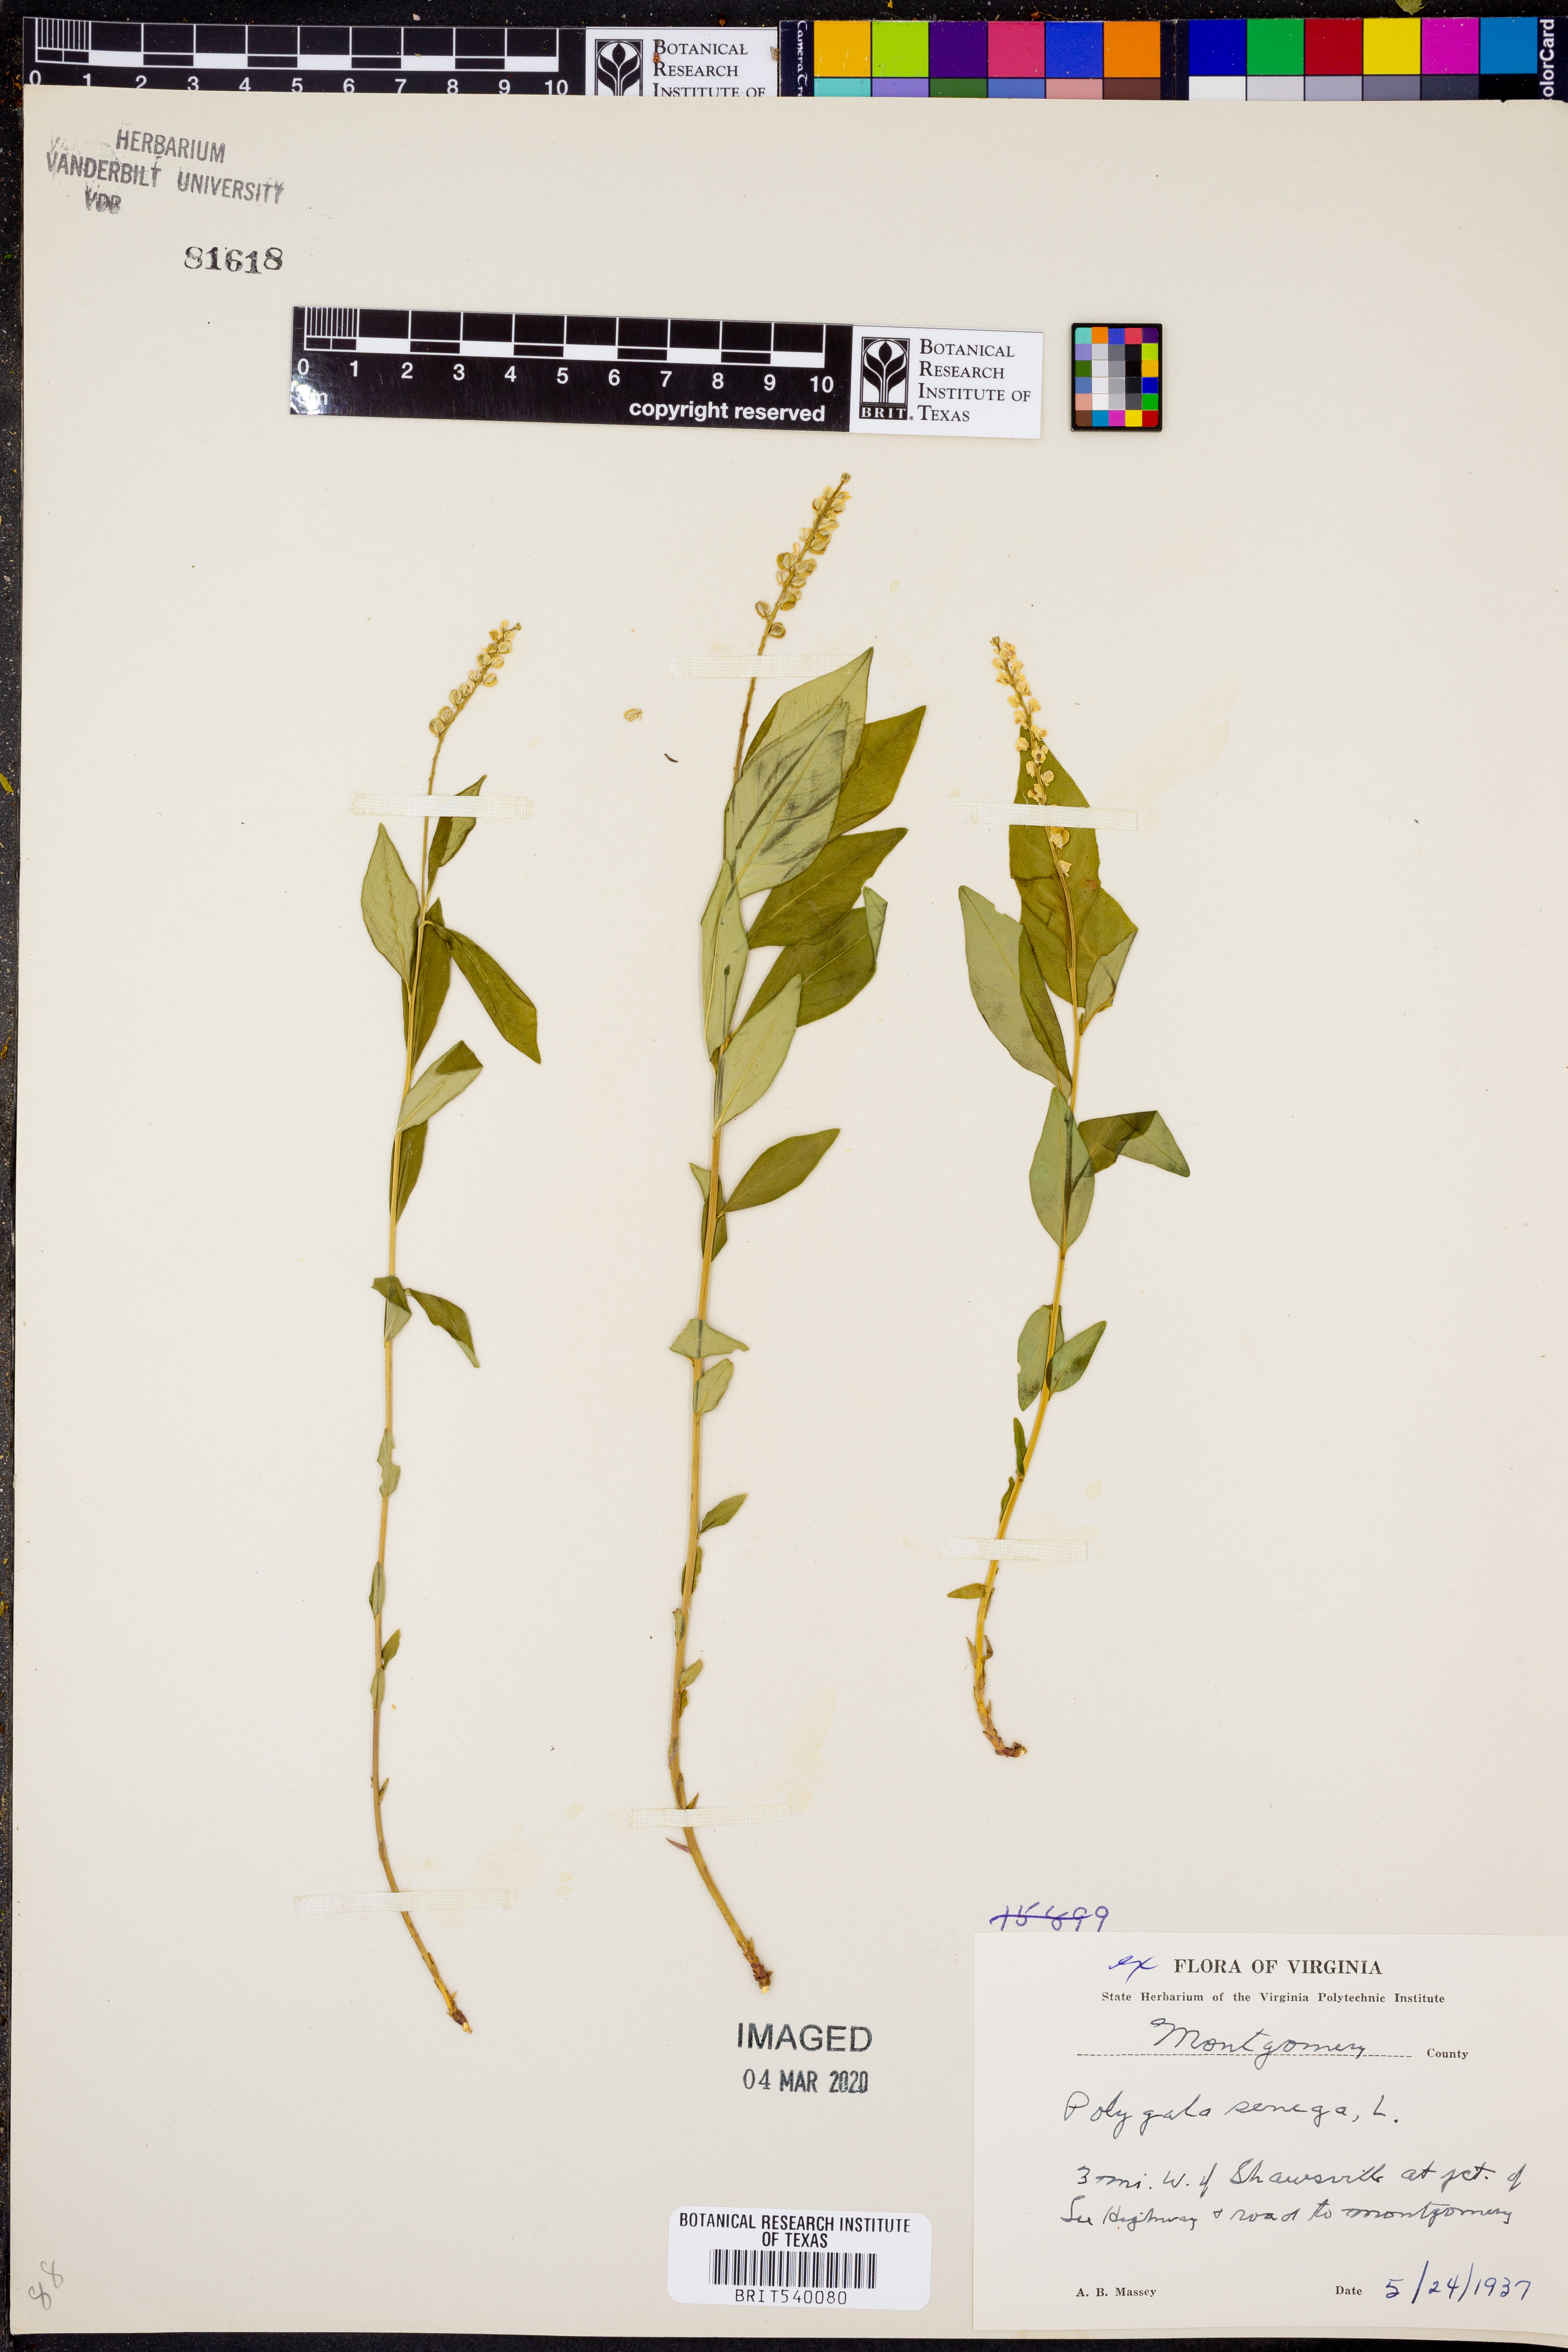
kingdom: Plantae
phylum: Tracheophyta
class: Magnoliopsida
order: Fabales
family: Polygalaceae
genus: Polygala
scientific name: Polygala senega
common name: Seneca snakeroot
